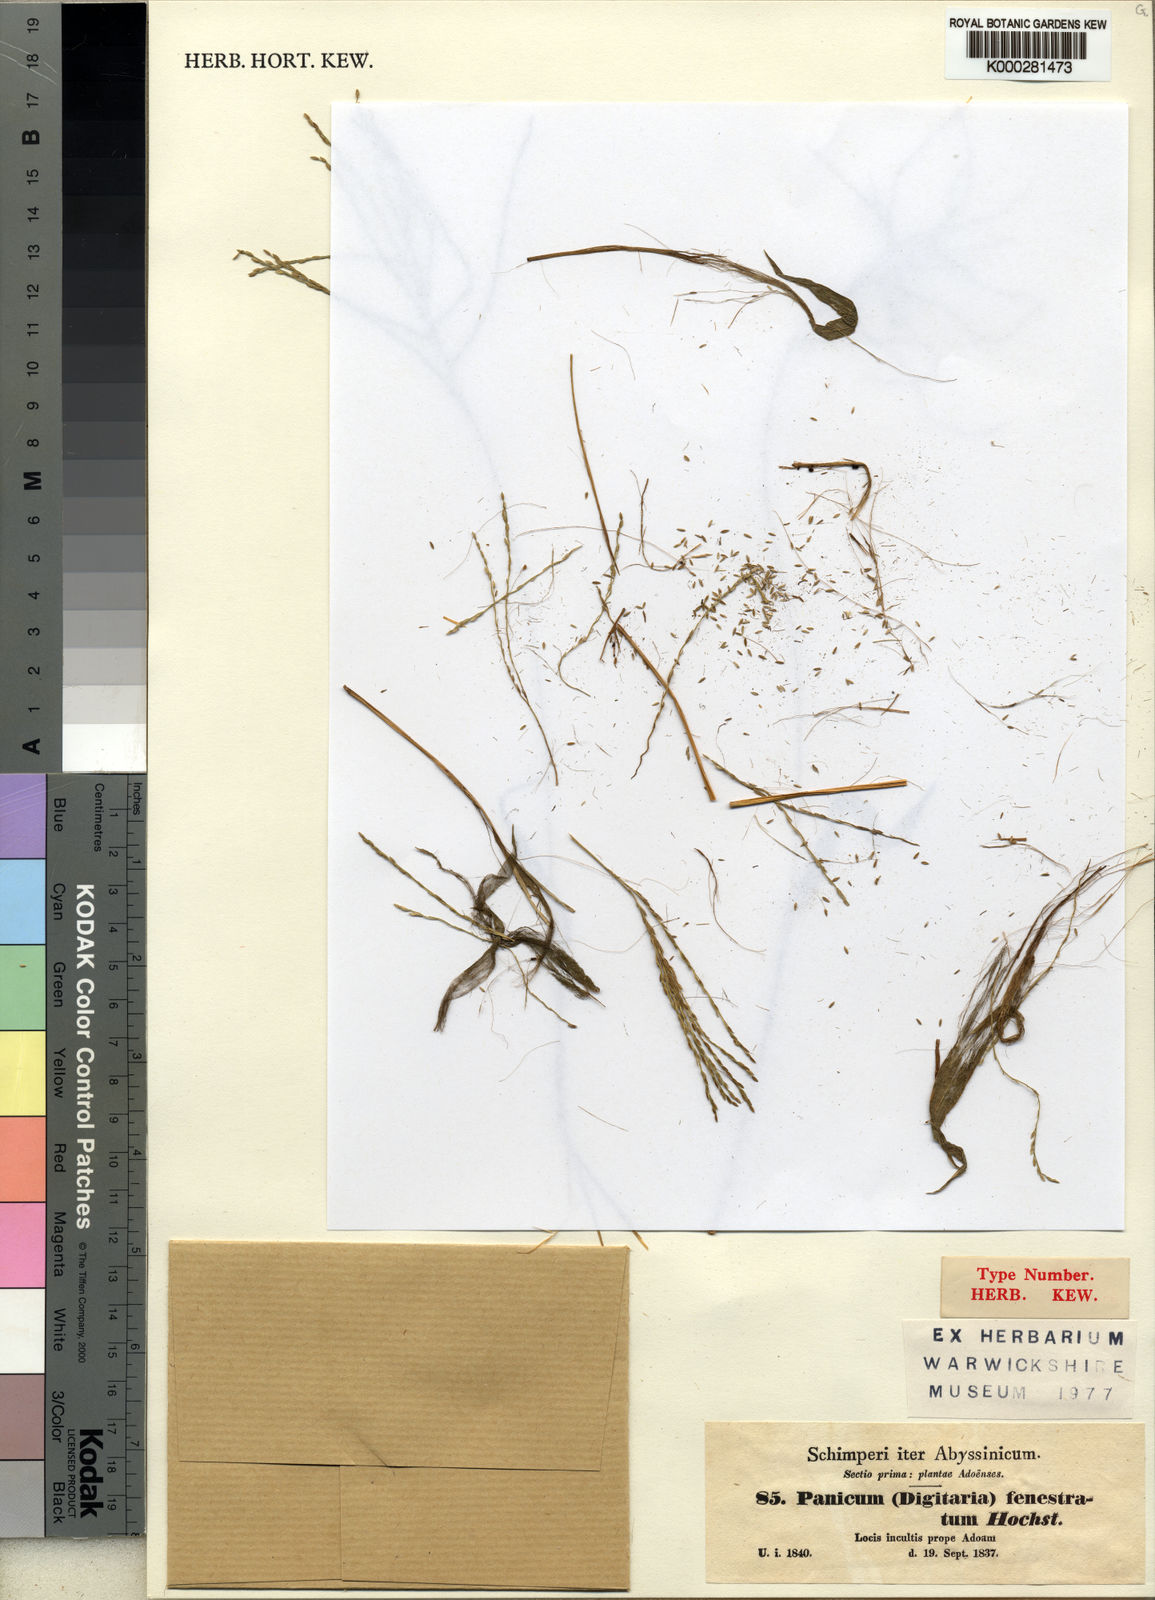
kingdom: Plantae
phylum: Tracheophyta
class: Liliopsida
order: Poales
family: Poaceae
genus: Digitaria
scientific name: Digitaria velutina
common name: Long-plume finger grass
